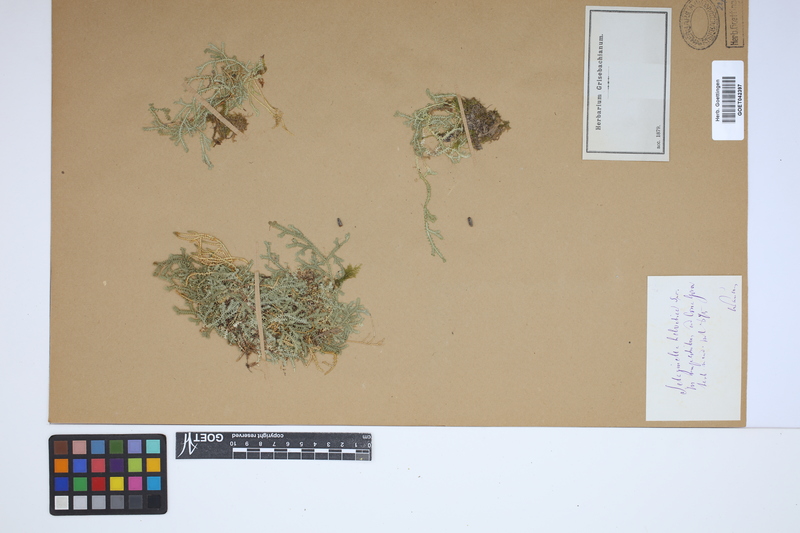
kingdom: Plantae
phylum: Tracheophyta
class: Lycopodiopsida
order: Selaginellales
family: Selaginellaceae
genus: Selaginella
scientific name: Selaginella helvetica
